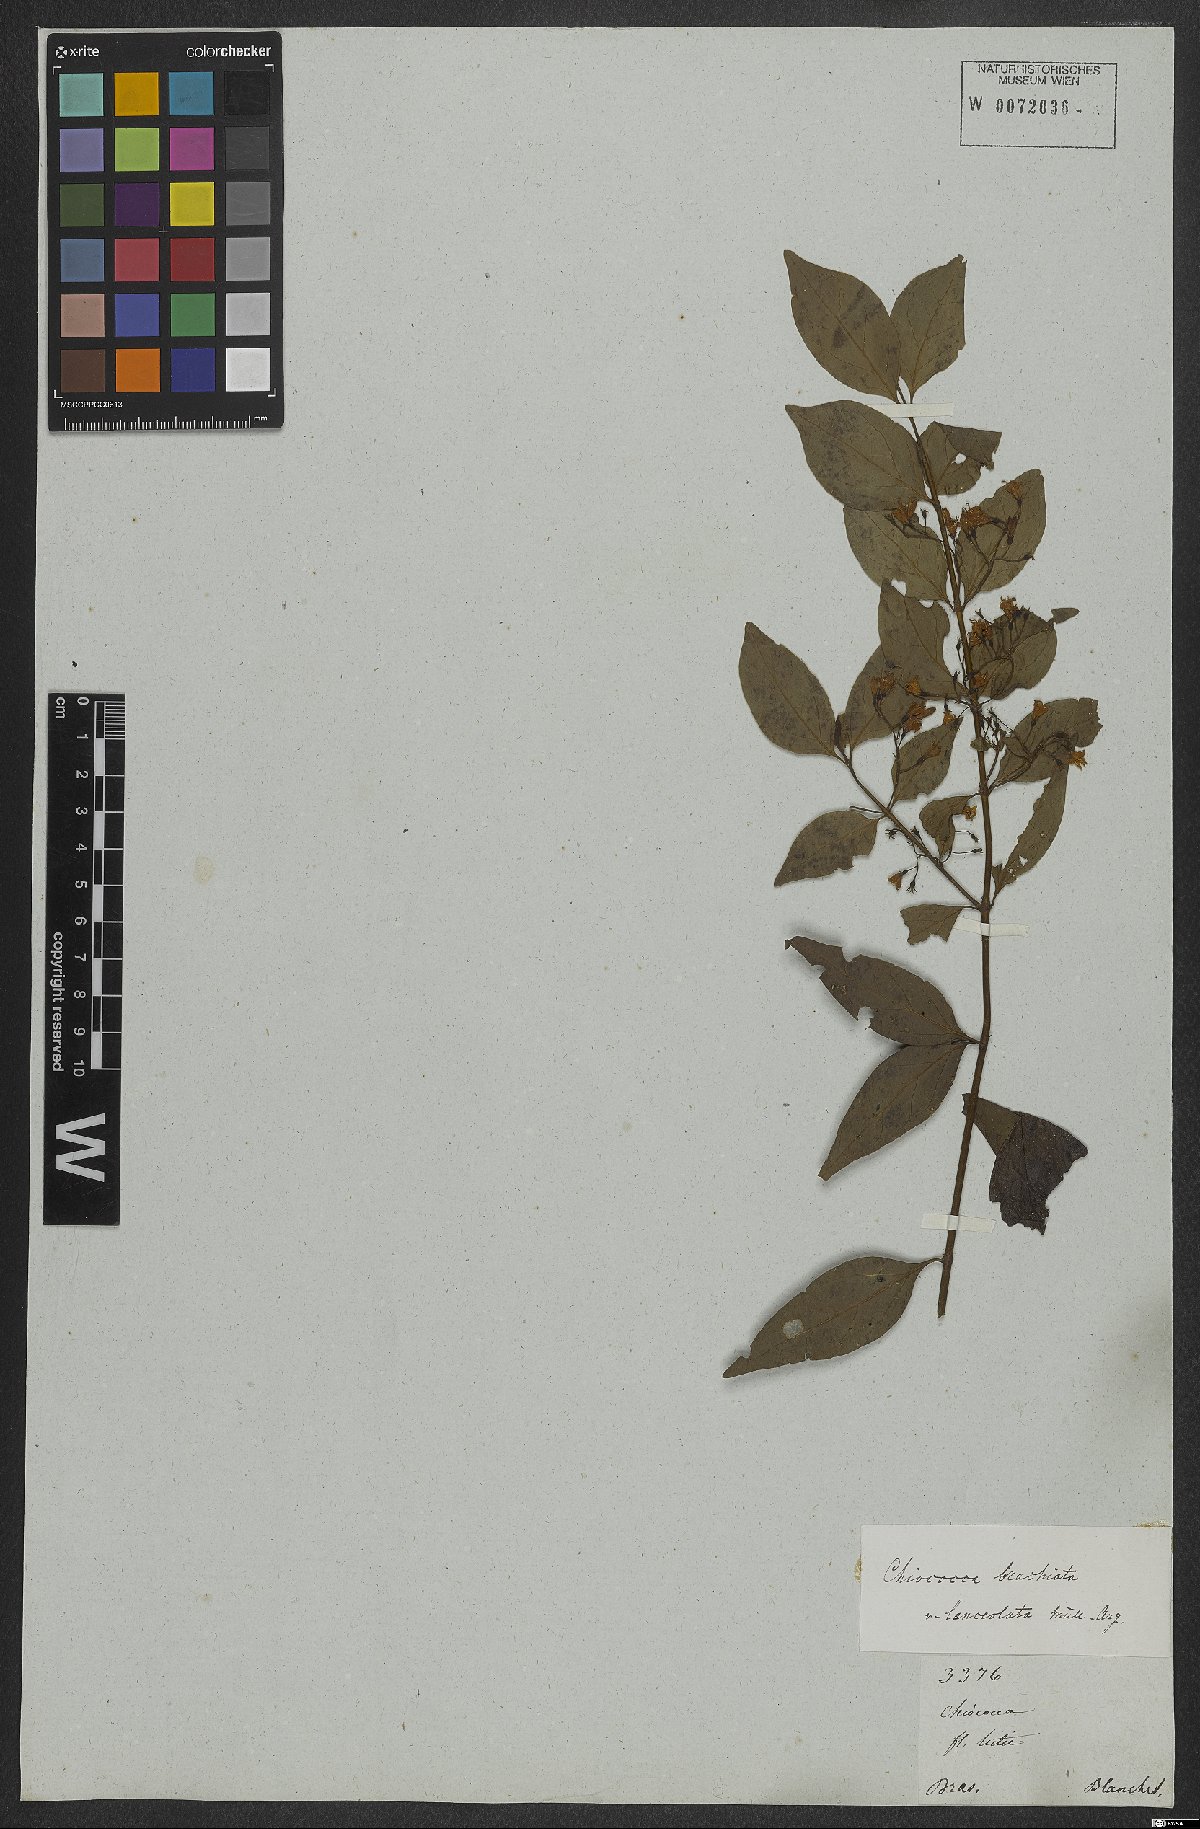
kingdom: Plantae
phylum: Tracheophyta
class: Magnoliopsida
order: Gentianales
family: Rubiaceae
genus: Chiococca
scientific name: Chiococca alba
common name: Snowberry
